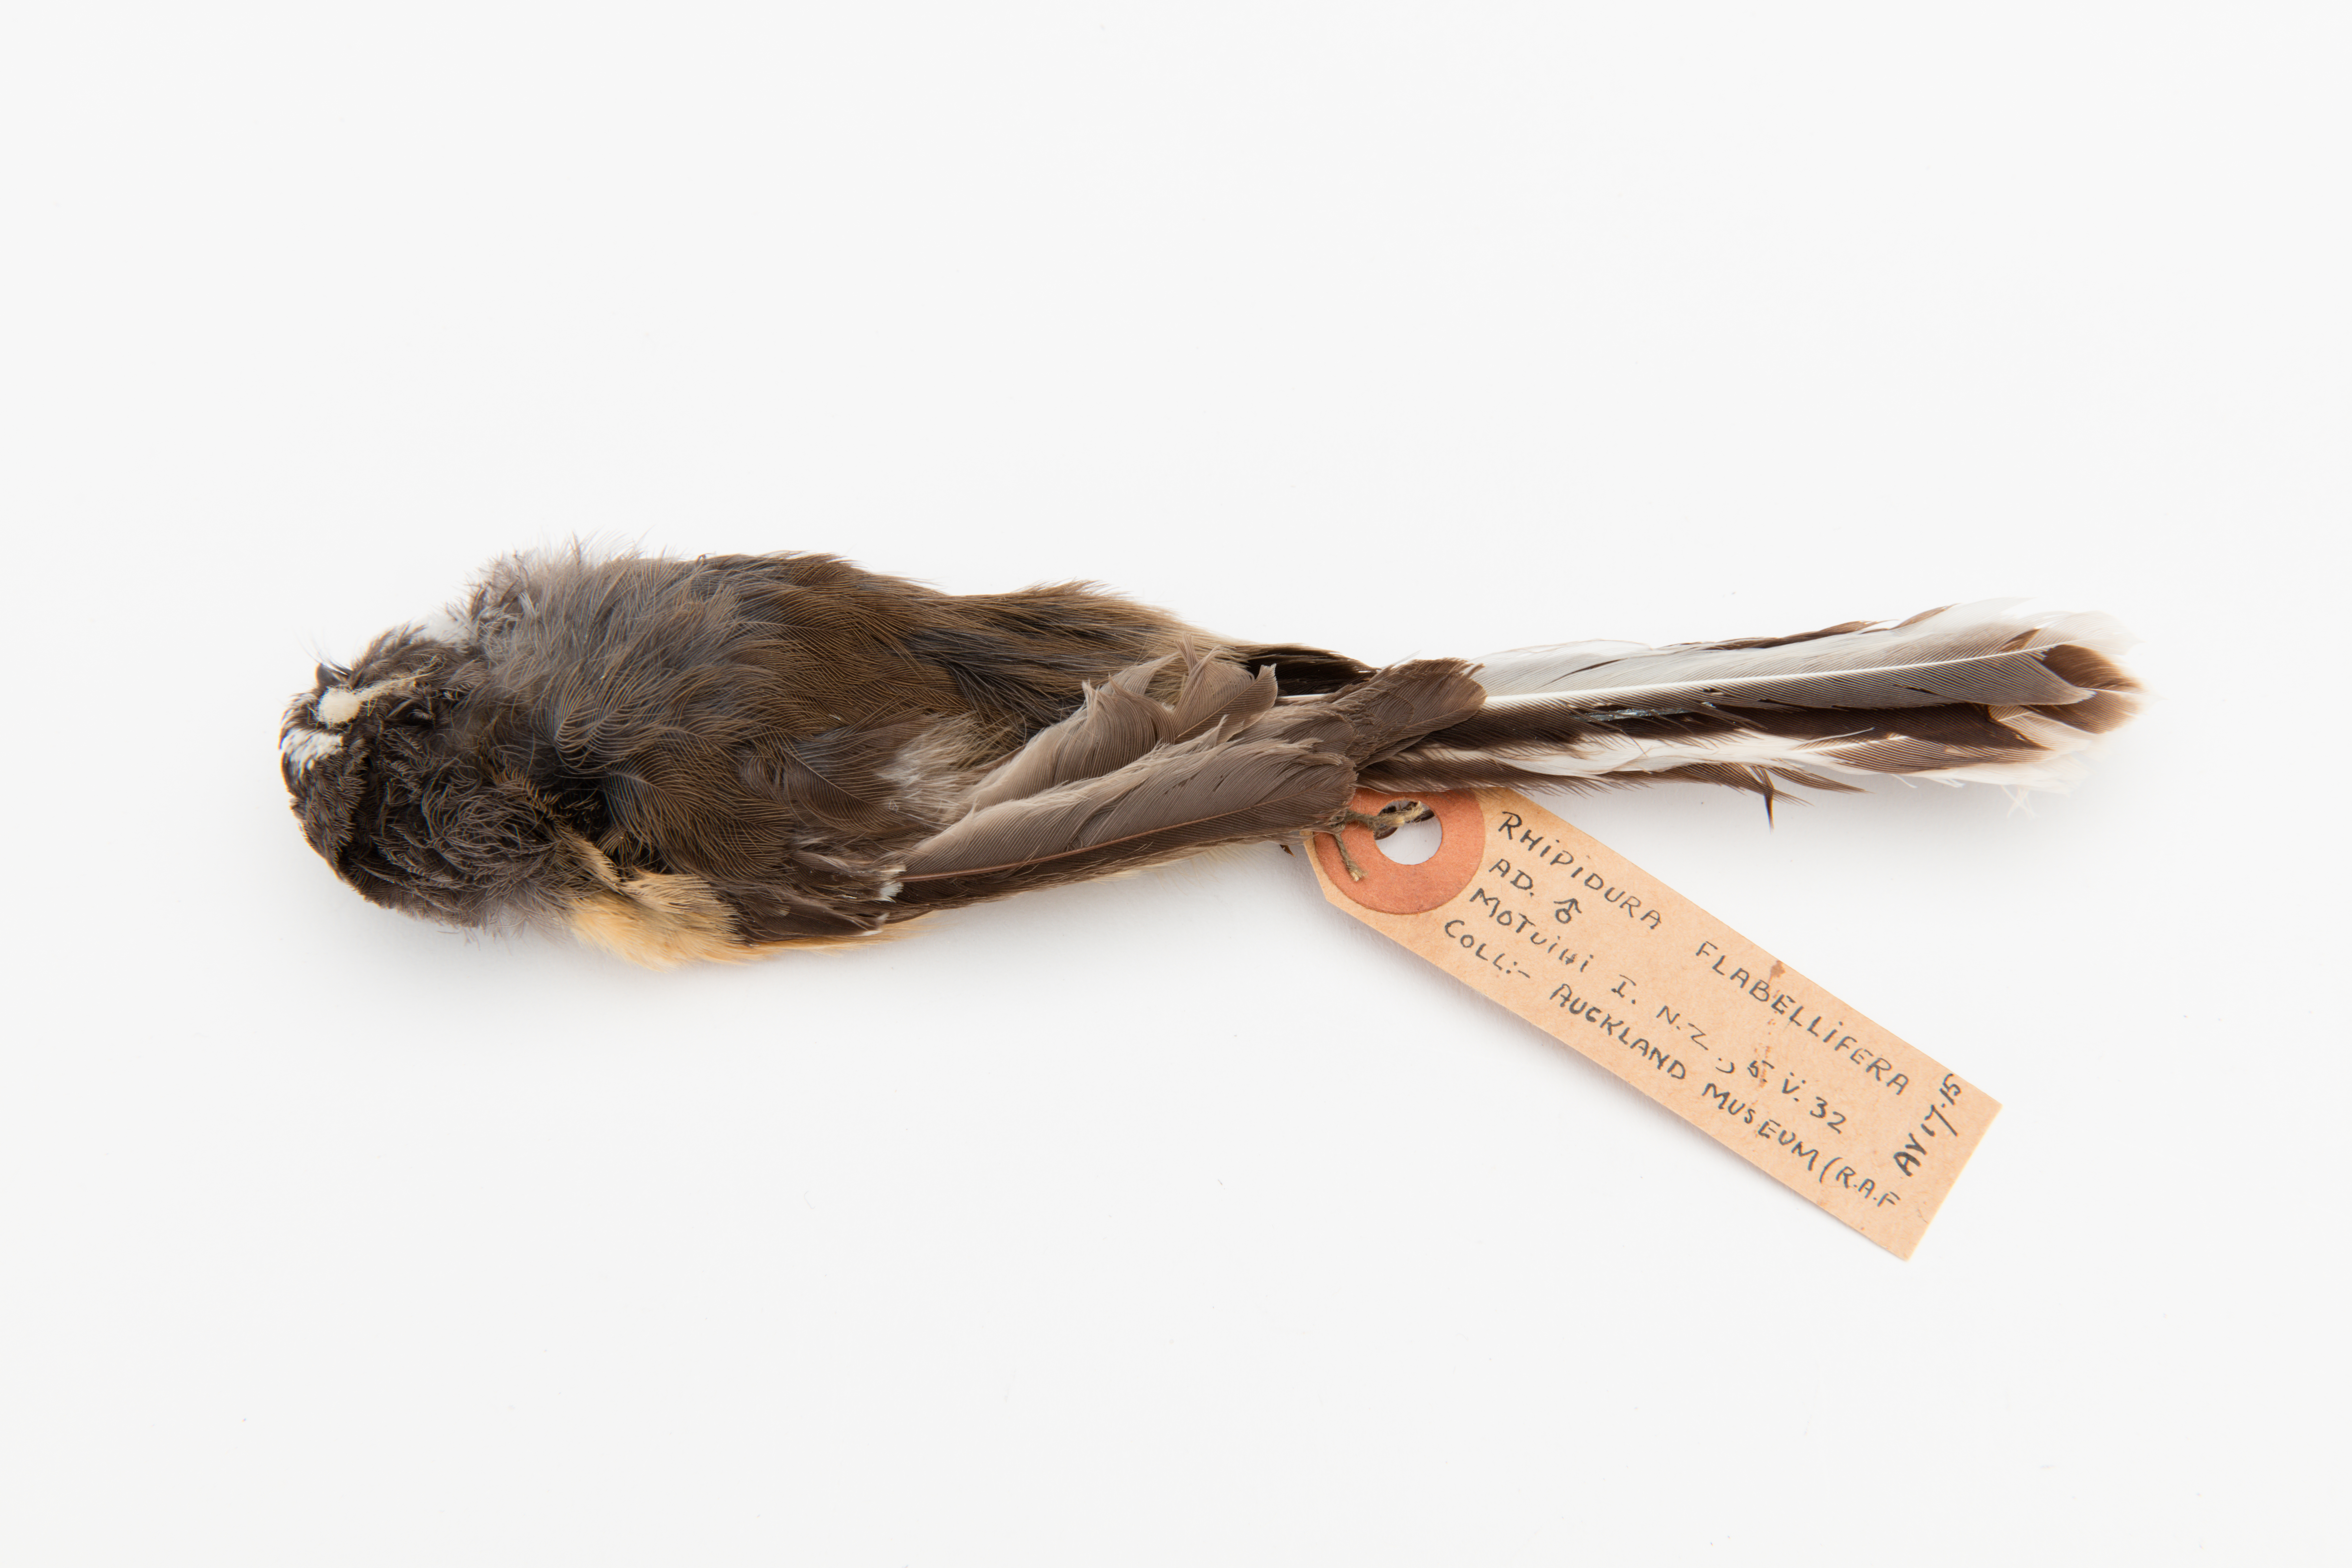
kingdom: Animalia
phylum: Chordata
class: Aves
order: Passeriformes
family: Rhipiduridae
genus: Rhipidura
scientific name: Rhipidura fuliginosa
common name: New zealand fantail
